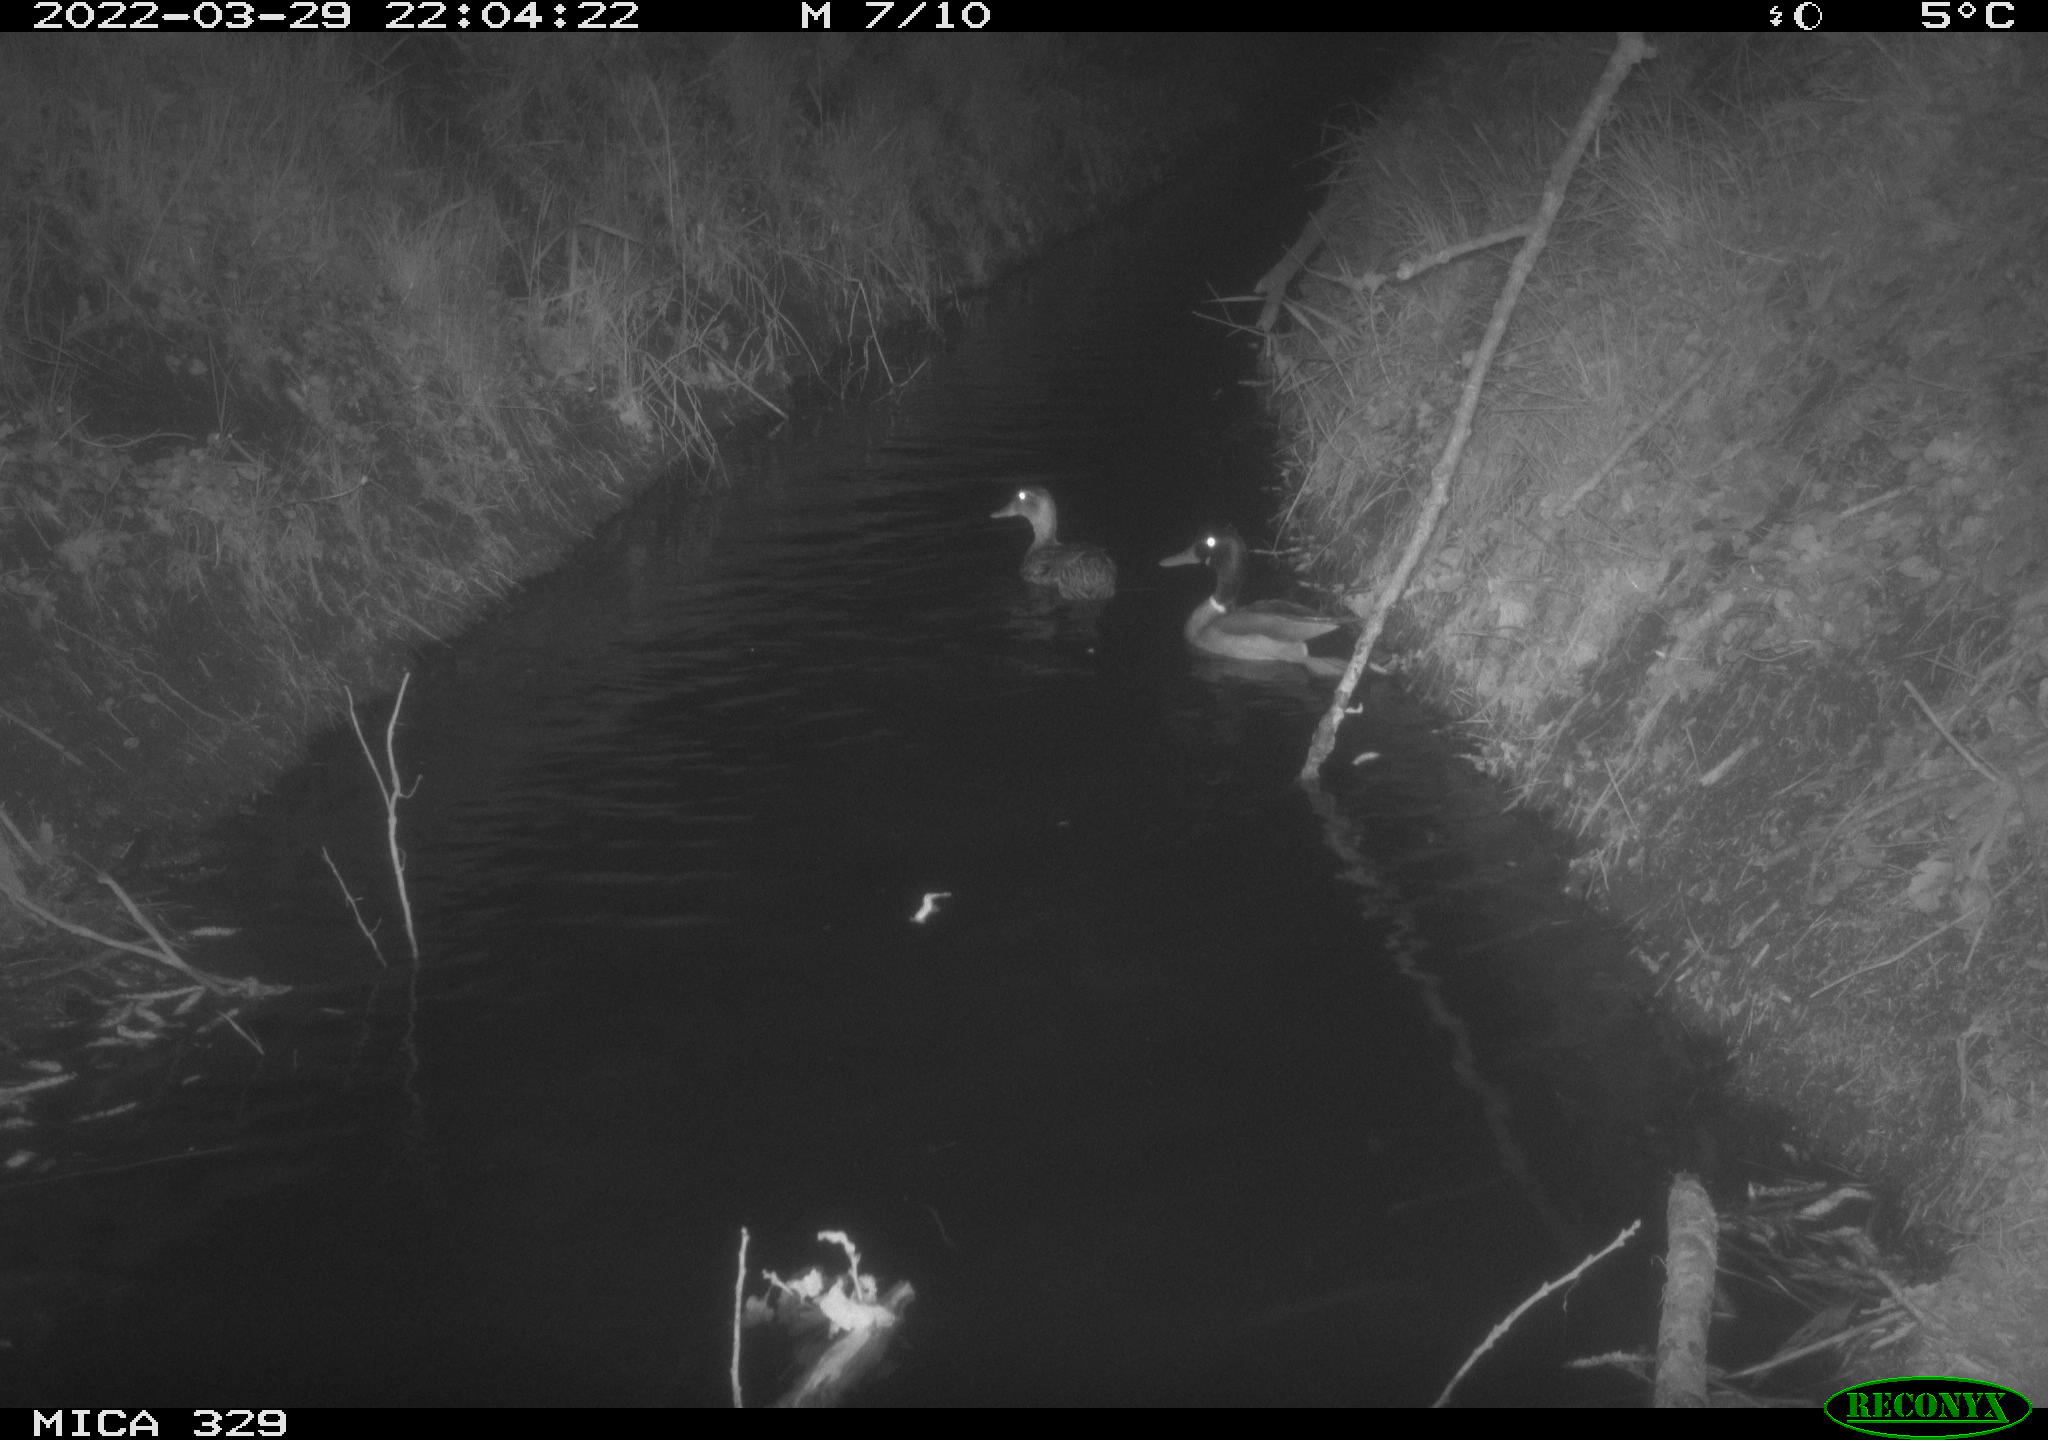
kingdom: Animalia
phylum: Chordata
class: Aves
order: Anseriformes
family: Anatidae
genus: Anas
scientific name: Anas platyrhynchos
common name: Mallard
